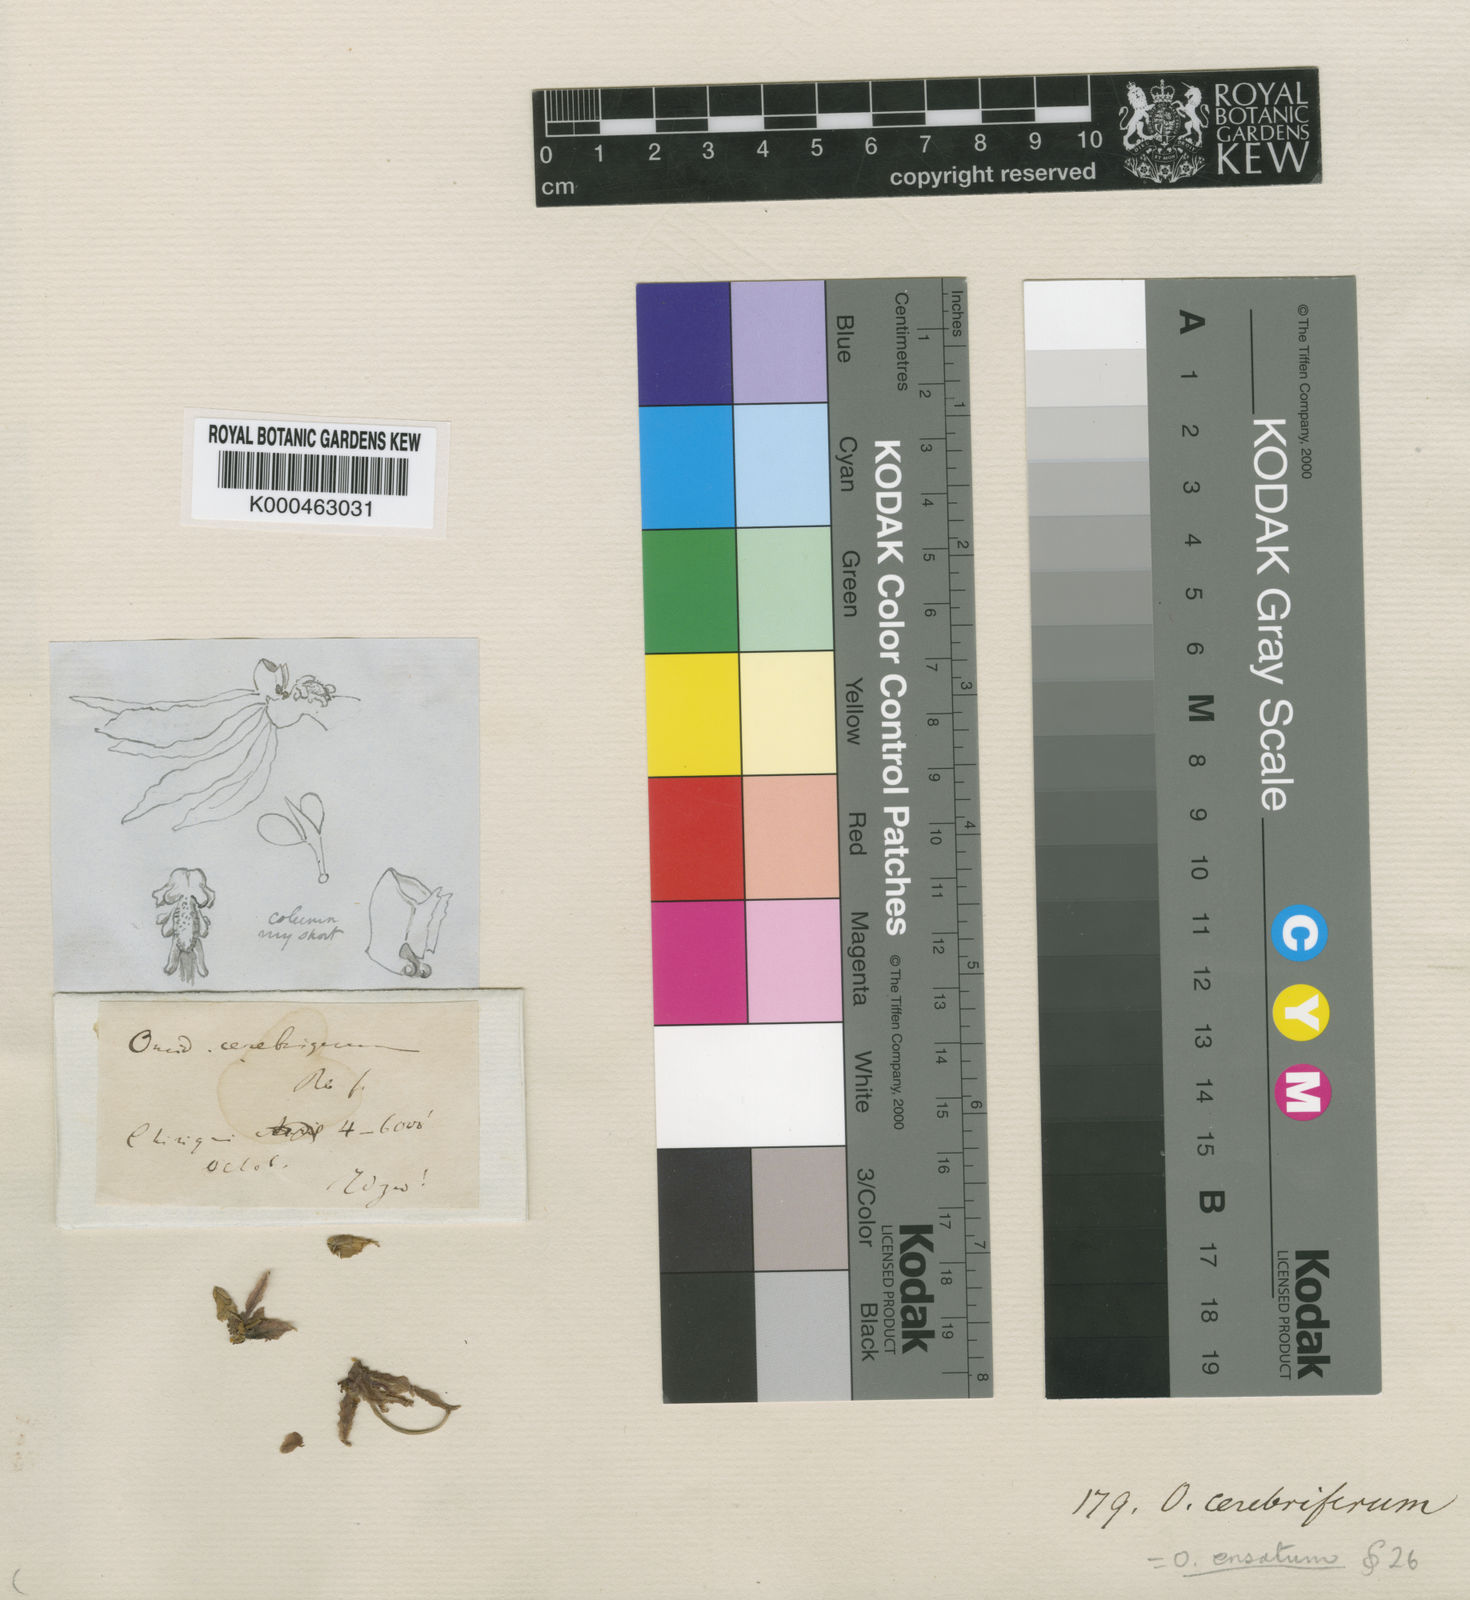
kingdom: Plantae
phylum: Tracheophyta
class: Liliopsida
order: Asparagales
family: Orchidaceae
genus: Oncidium
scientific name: Oncidium ensatum
